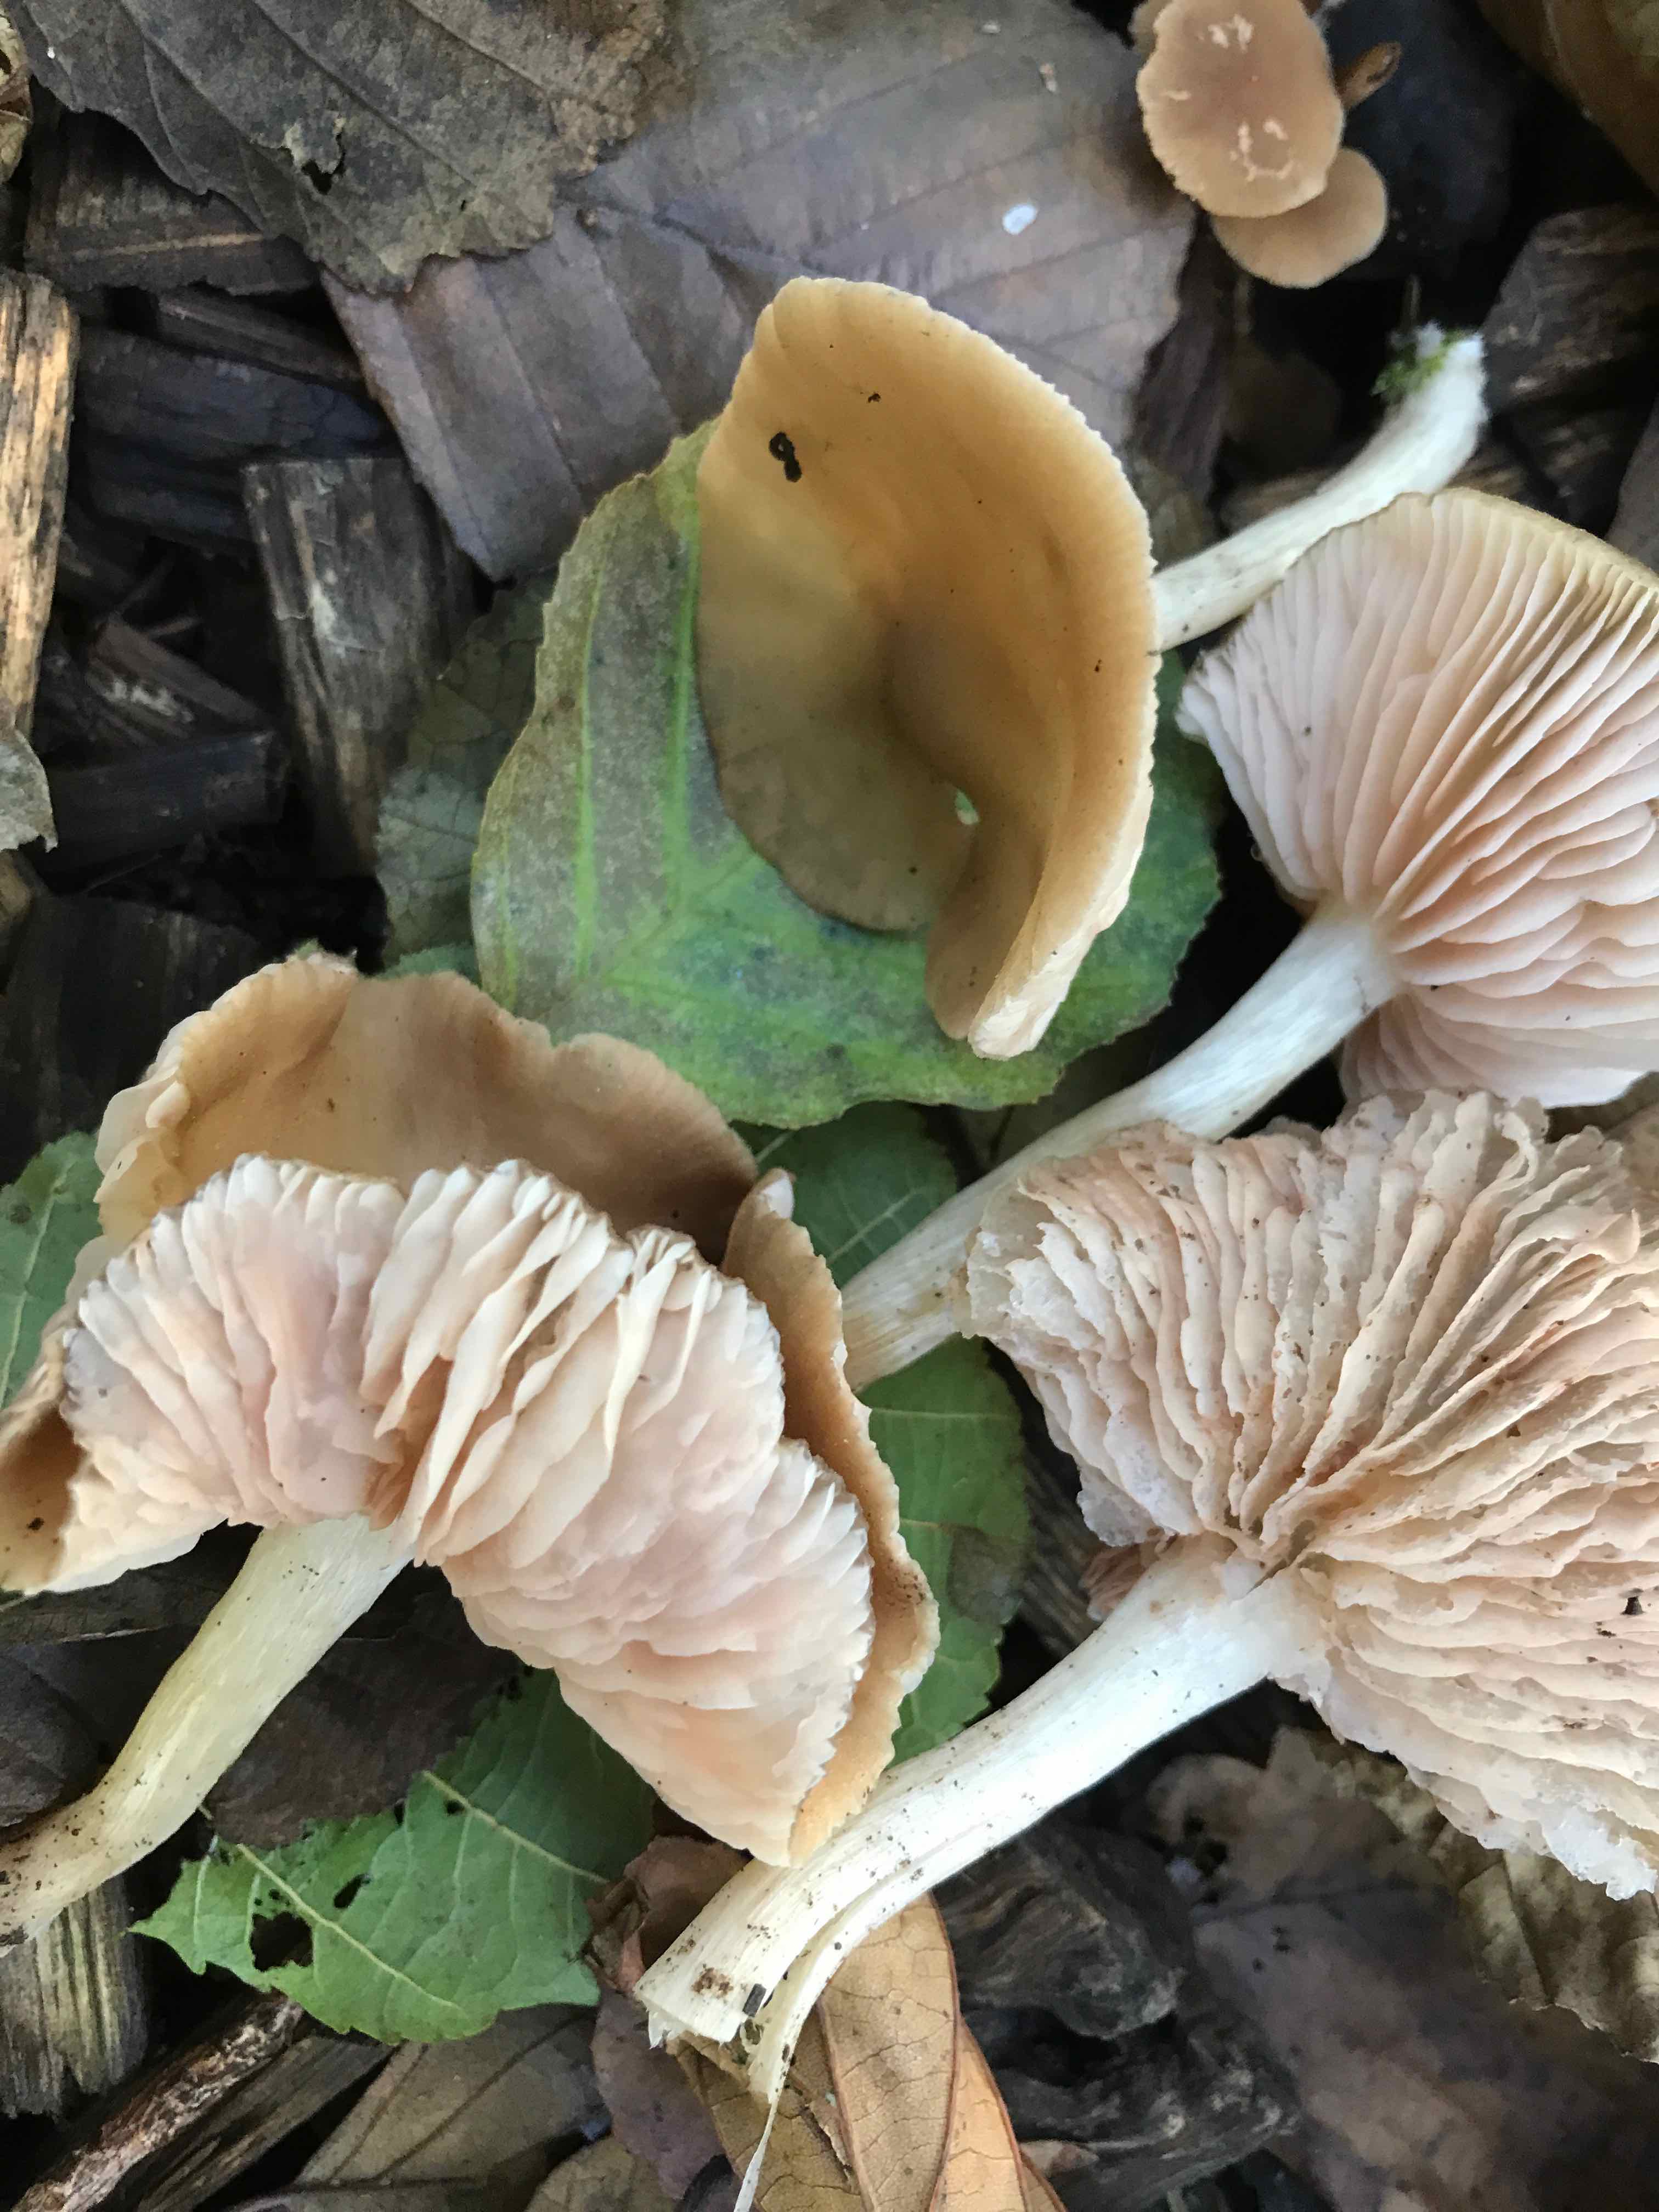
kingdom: Fungi
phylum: Basidiomycota
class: Agaricomycetes
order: Agaricales
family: Entolomataceae
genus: Entoloma
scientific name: Entoloma
